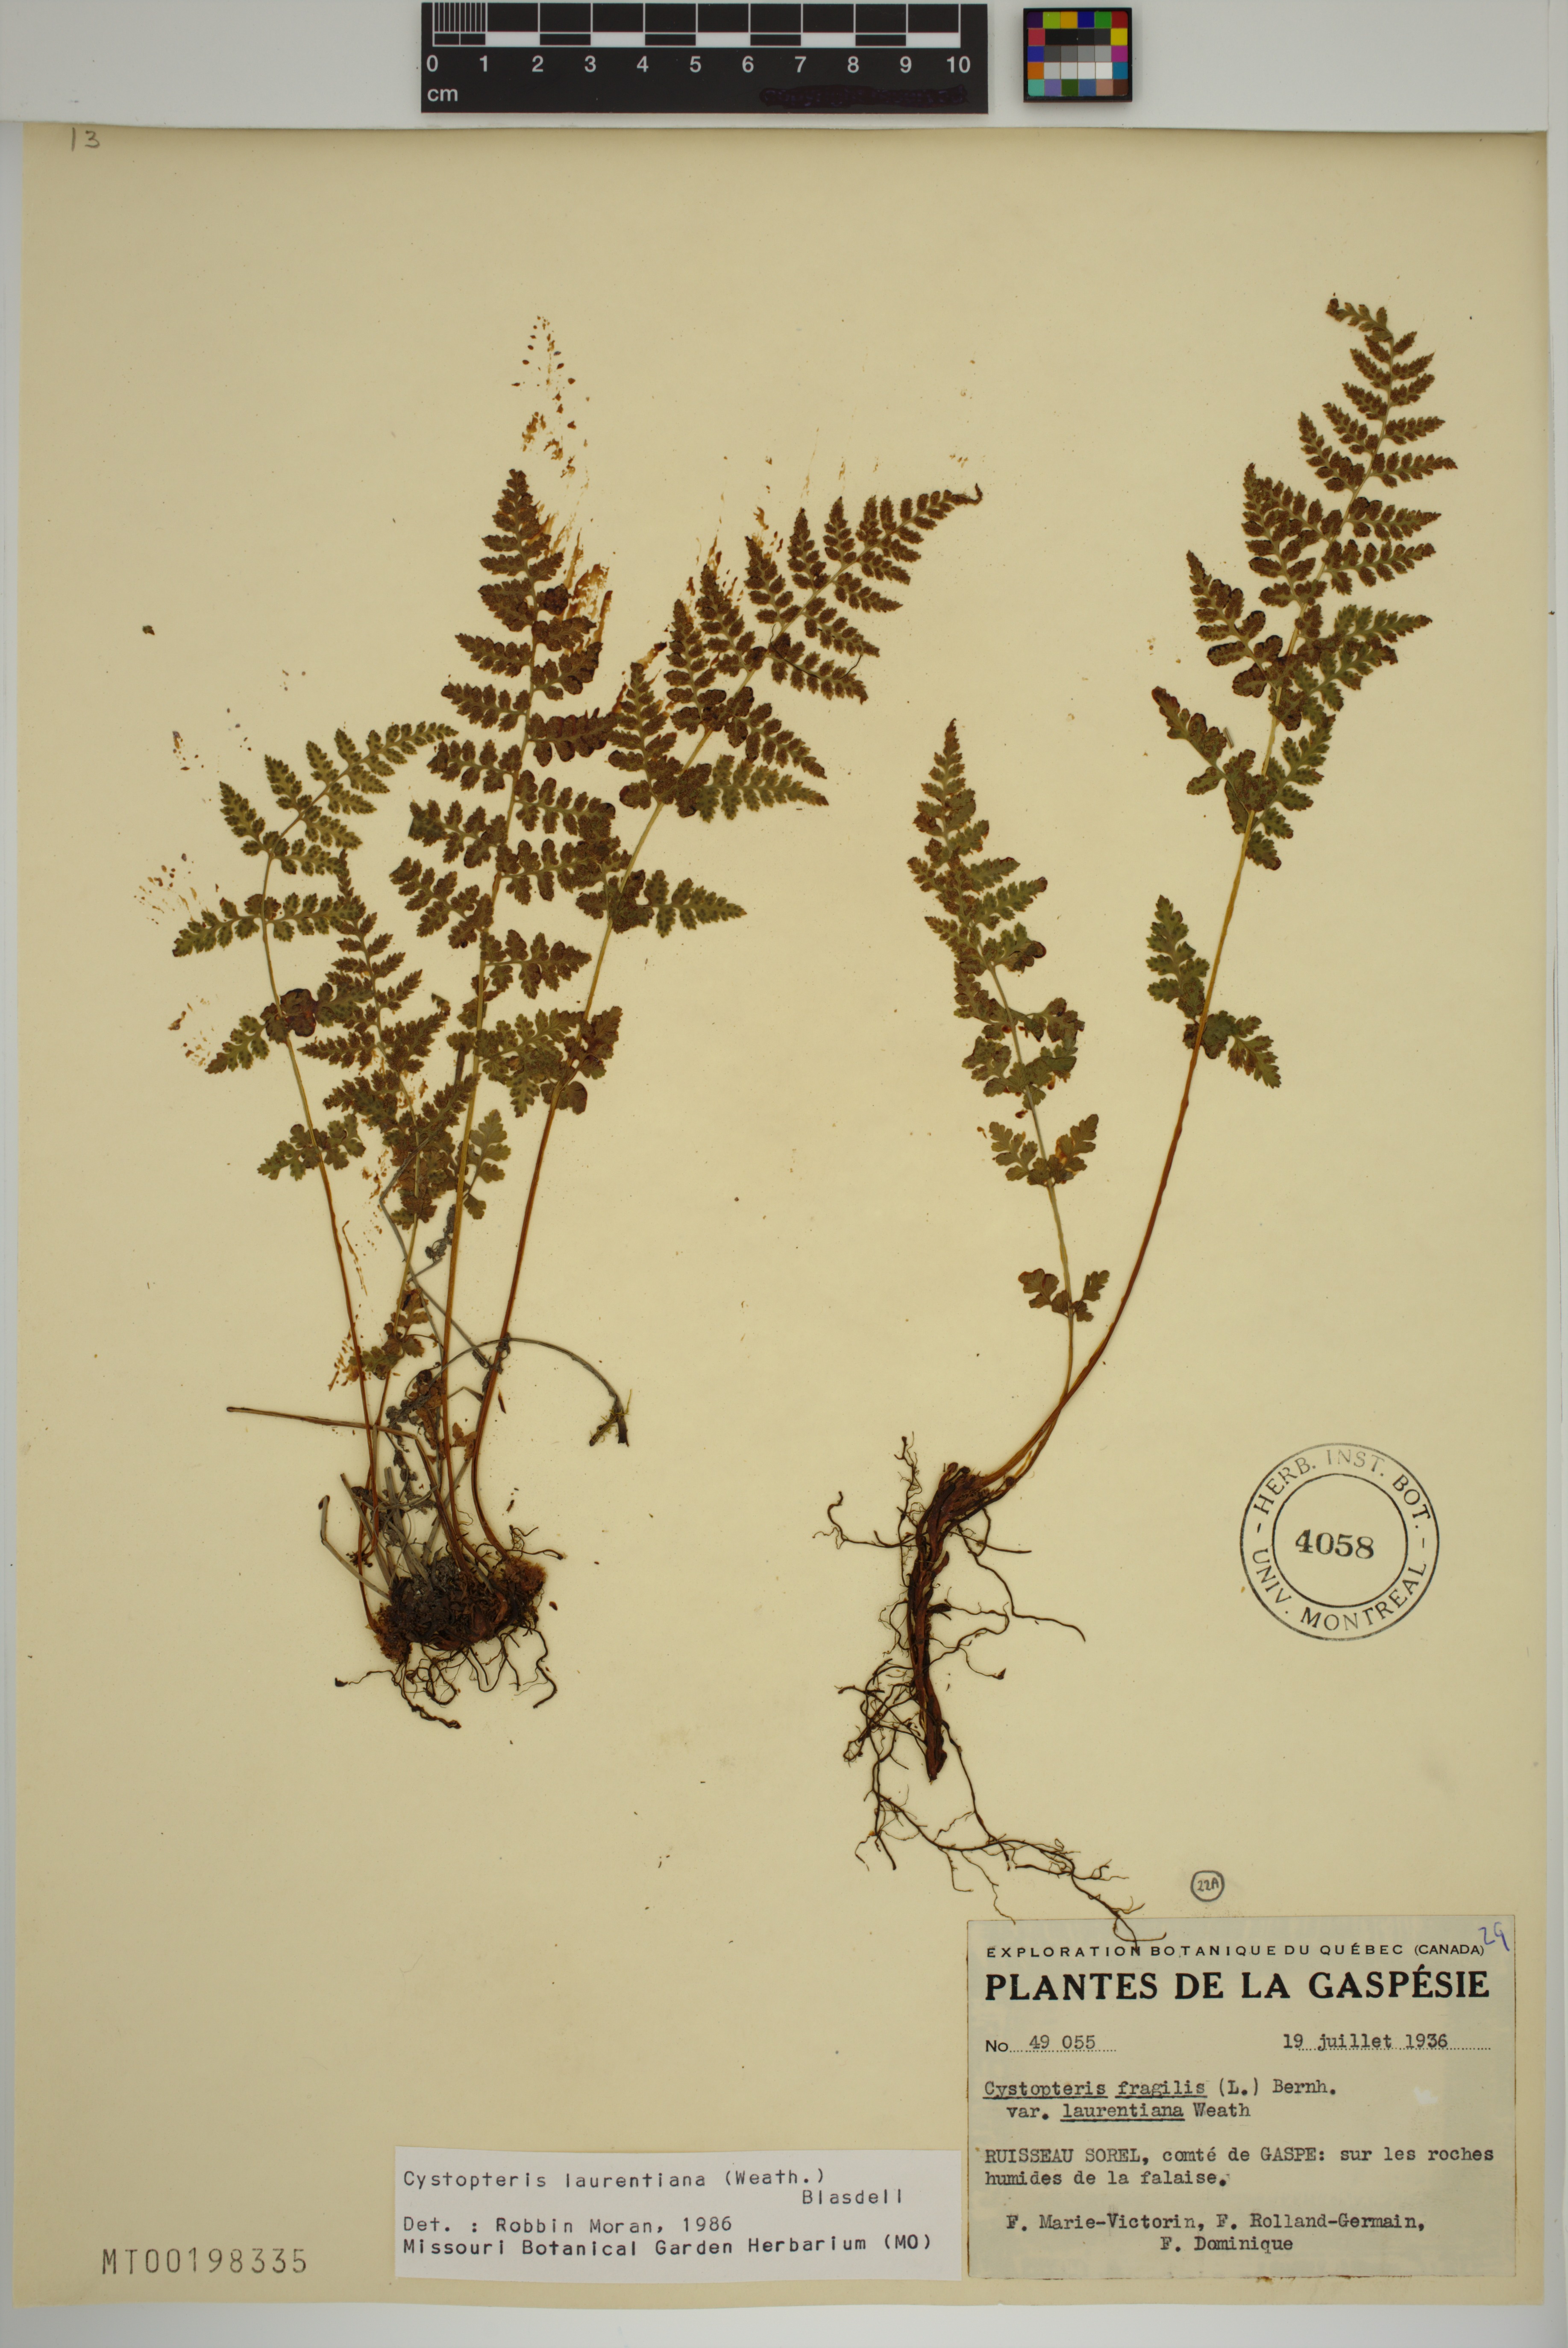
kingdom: Plantae
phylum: Tracheophyta
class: Polypodiopsida
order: Polypodiales
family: Cystopteridaceae
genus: Cystopteris
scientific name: Cystopteris laurentiana
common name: Blasdell's laurentian bladder fern
